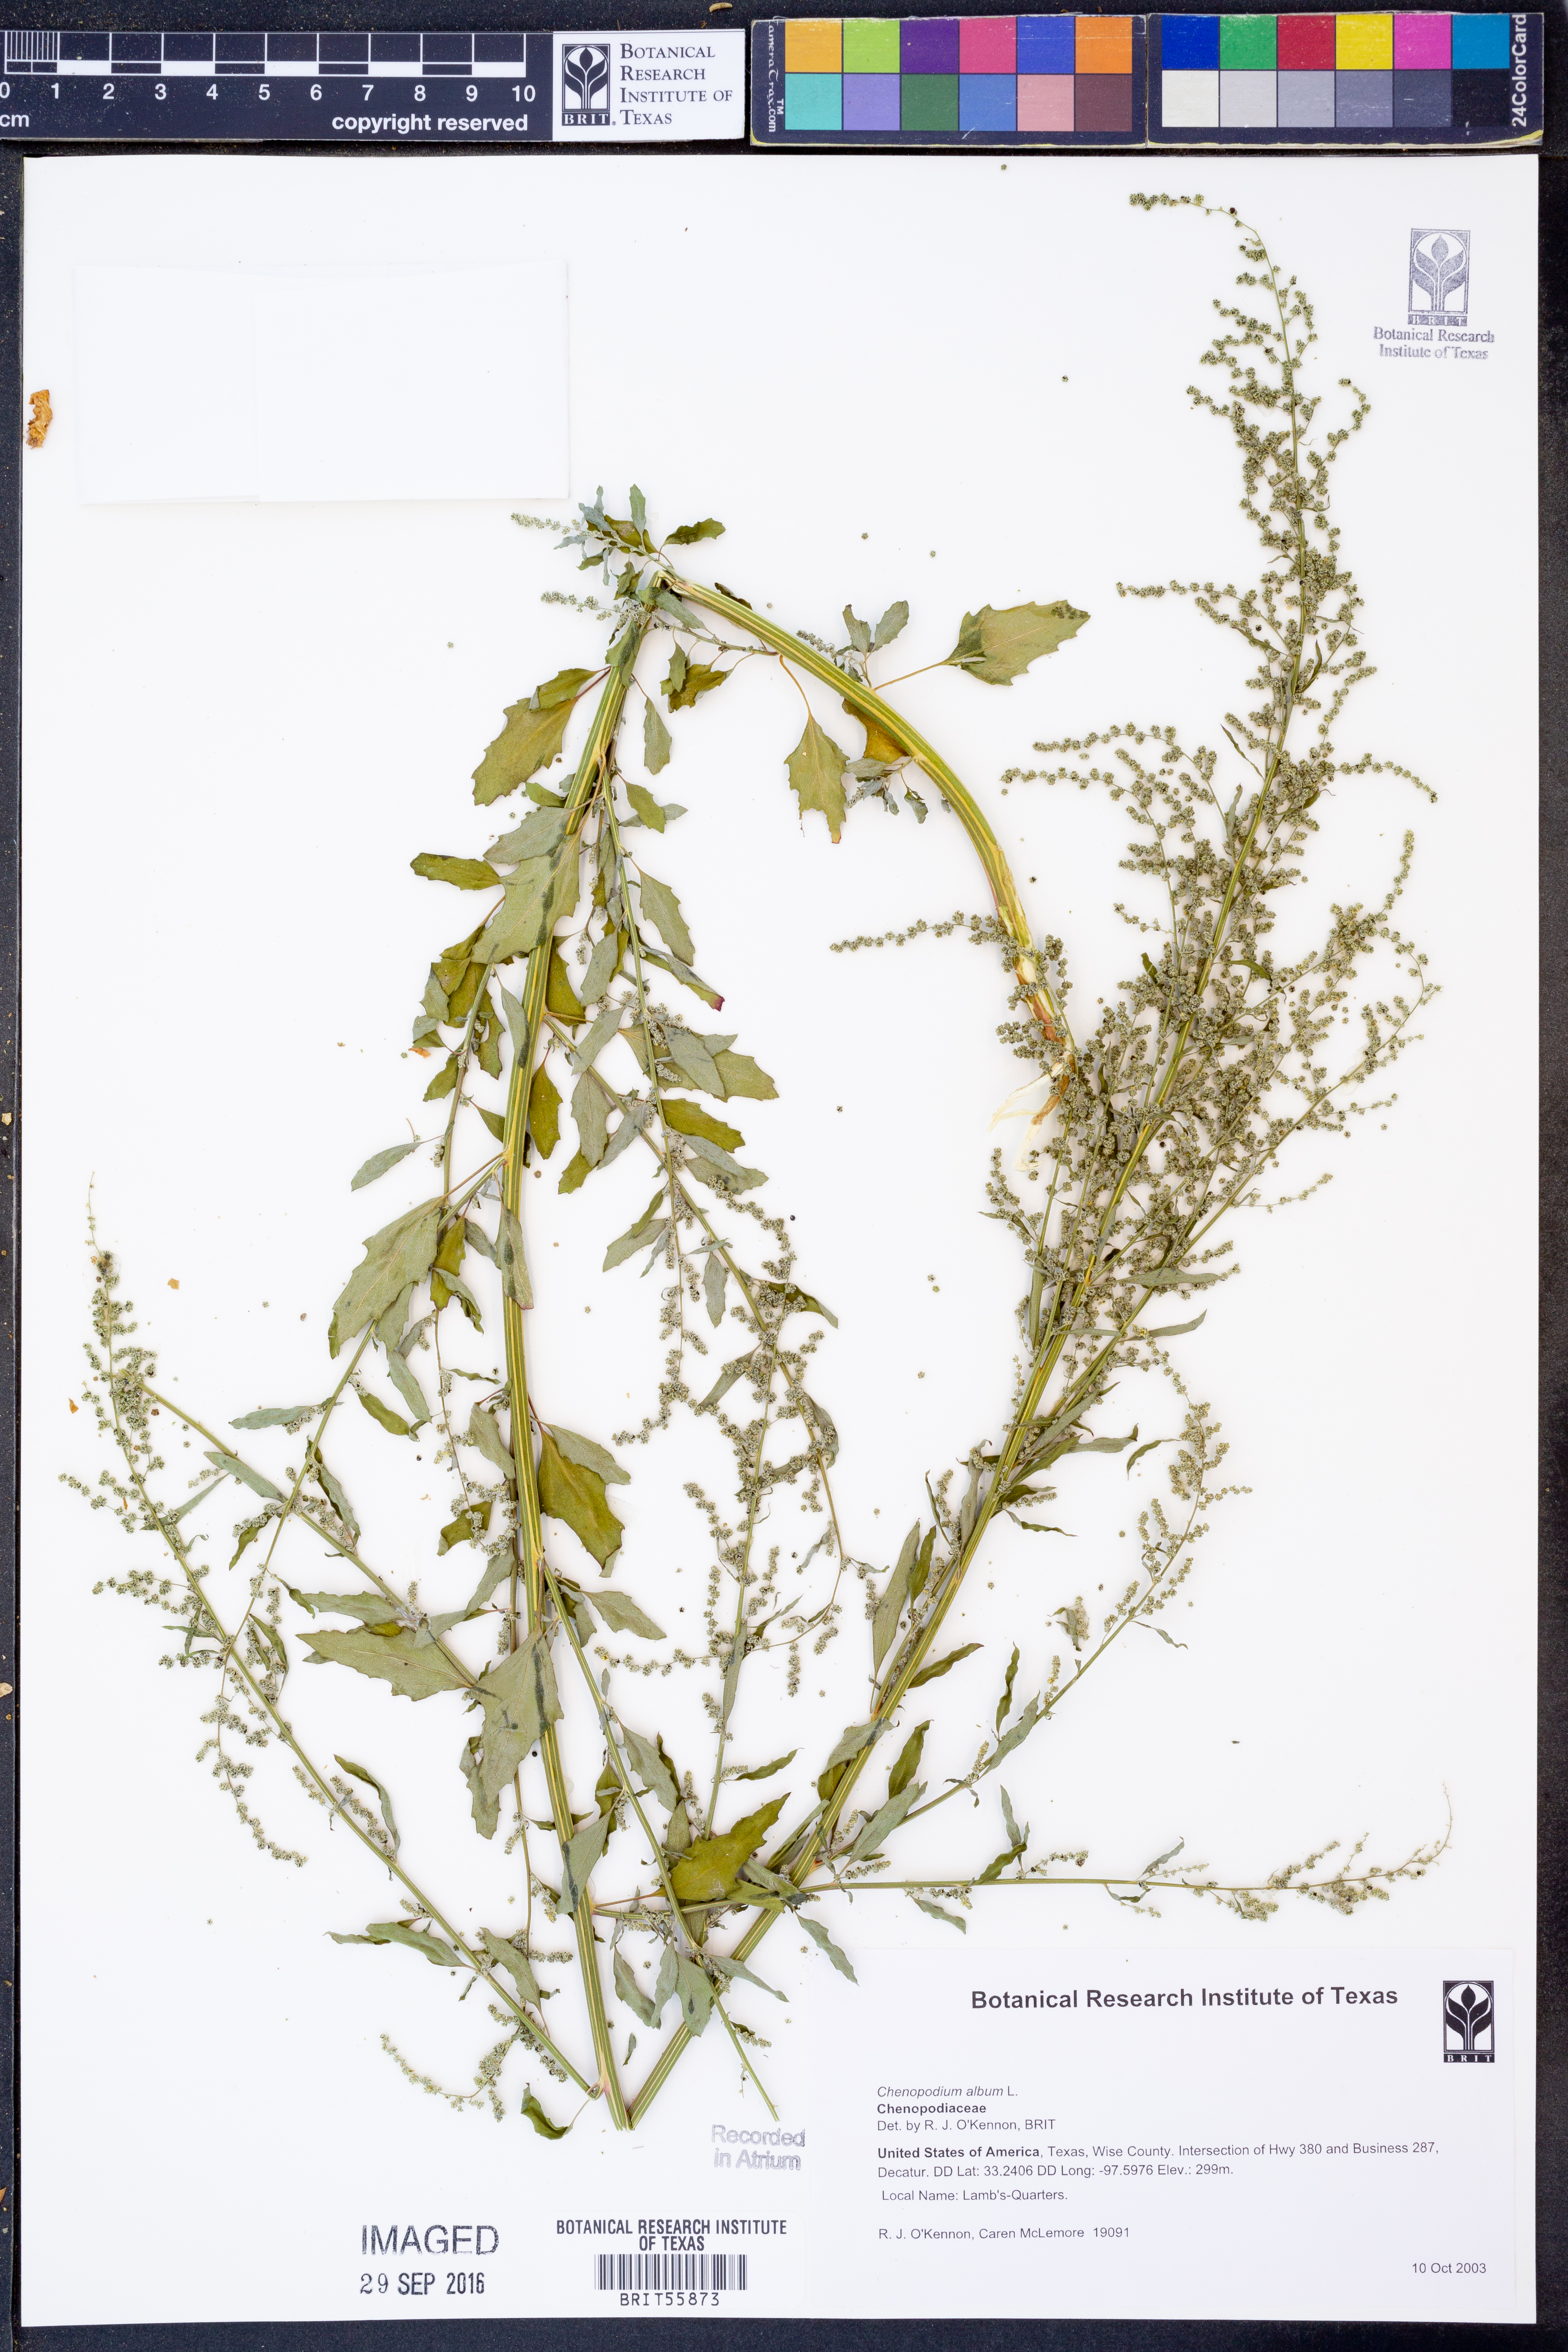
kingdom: Plantae
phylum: Tracheophyta
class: Magnoliopsida
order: Caryophyllales
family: Amaranthaceae
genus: Chenopodium
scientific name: Chenopodium album
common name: Fat-hen
